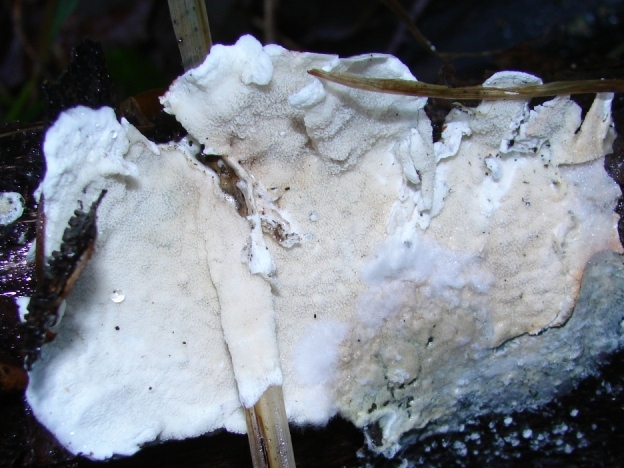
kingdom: Fungi
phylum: Basidiomycota
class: Agaricomycetes
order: Polyporales
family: Irpicaceae
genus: Byssomerulius
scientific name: Byssomerulius corium
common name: læder-åresvamp
